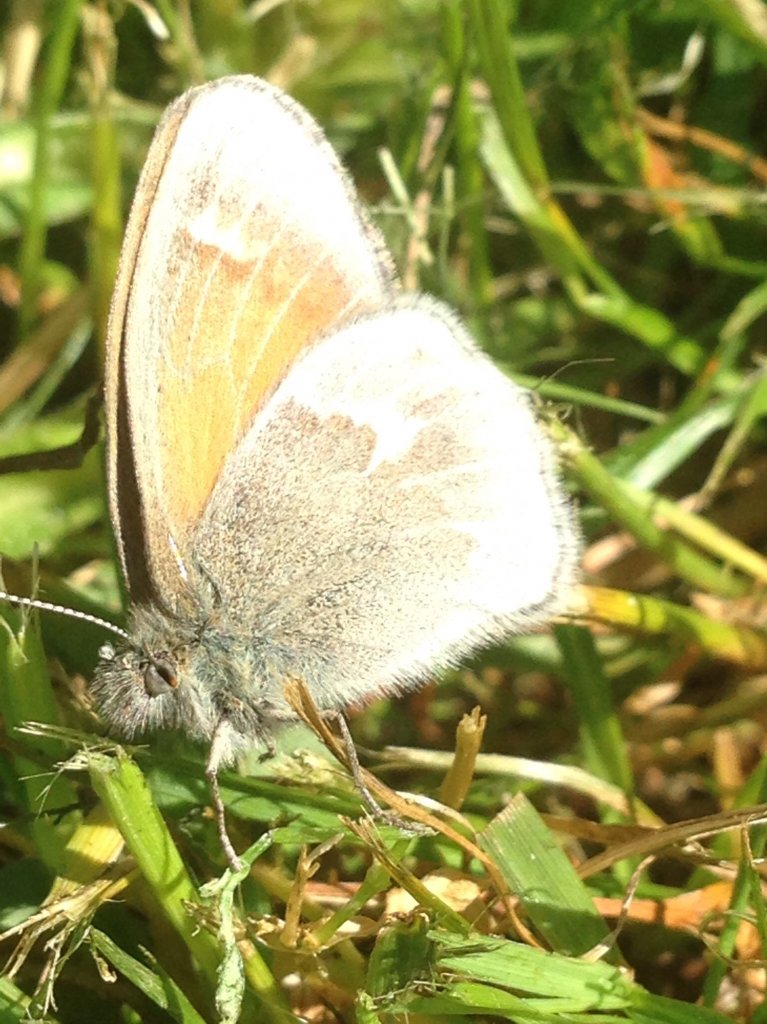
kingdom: Animalia
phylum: Arthropoda
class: Insecta
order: Lepidoptera
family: Nymphalidae
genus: Coenonympha
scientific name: Coenonympha tullia
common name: Large Heath
